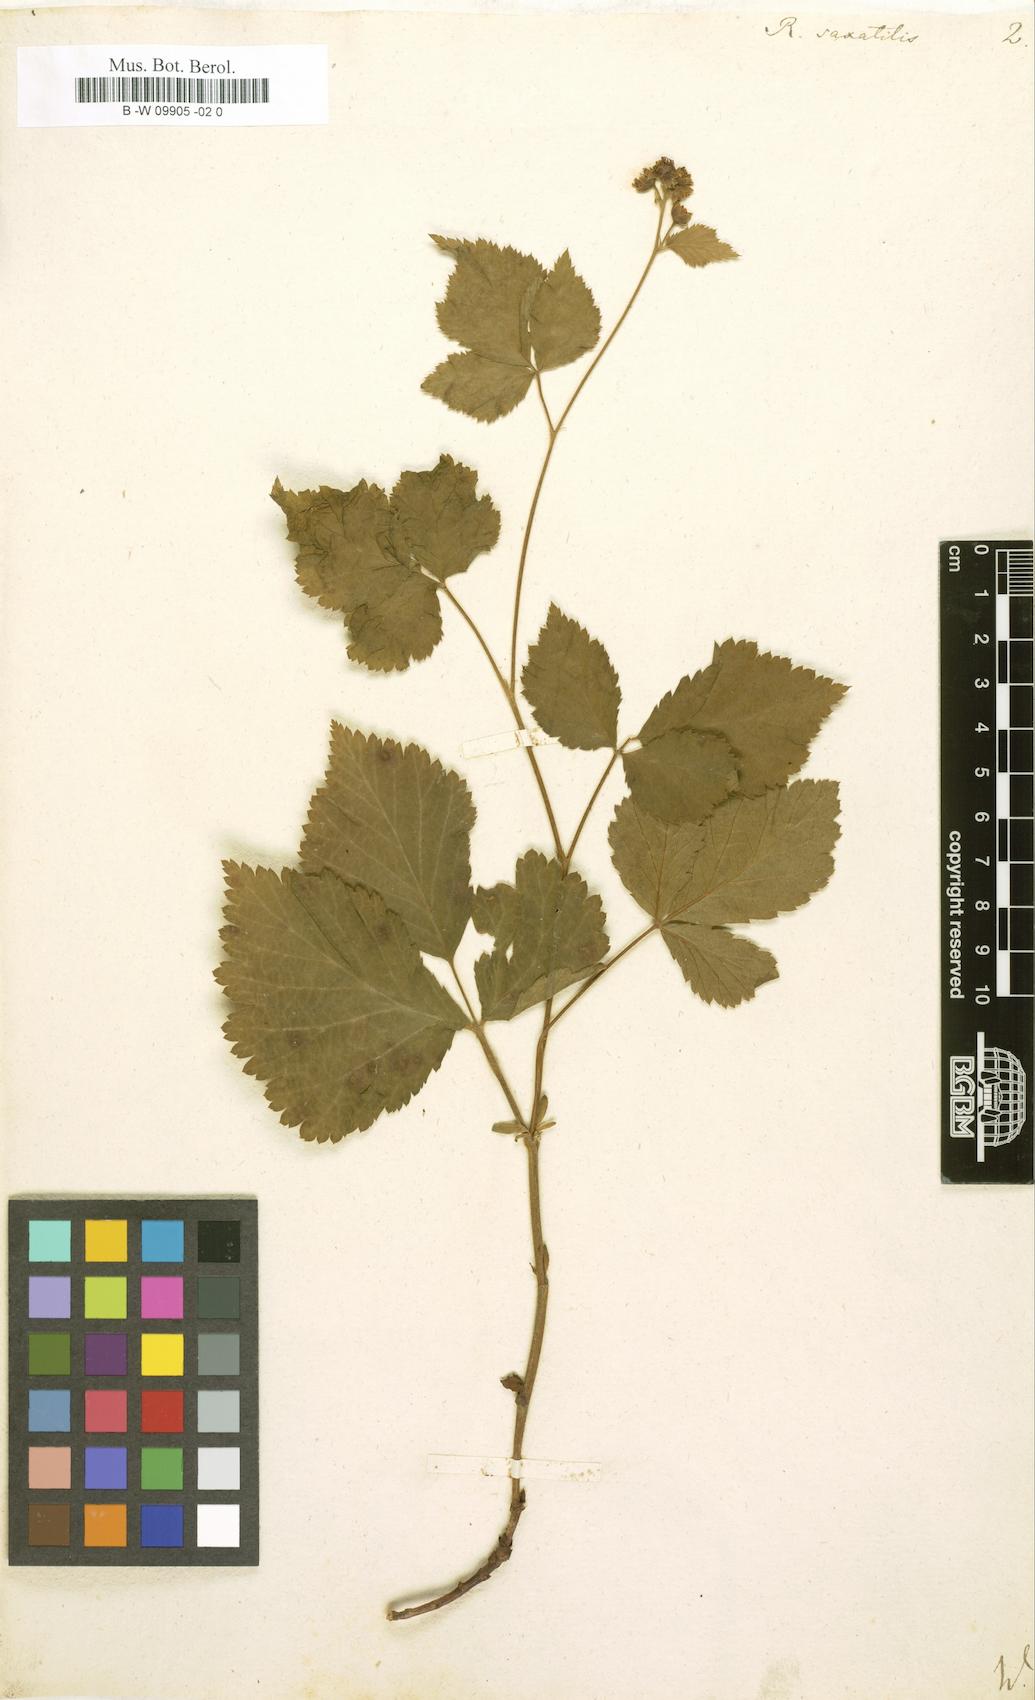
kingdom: Plantae
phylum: Tracheophyta
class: Magnoliopsida
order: Rosales
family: Rosaceae
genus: Rubus
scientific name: Rubus saxatilis
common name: Stone bramble
